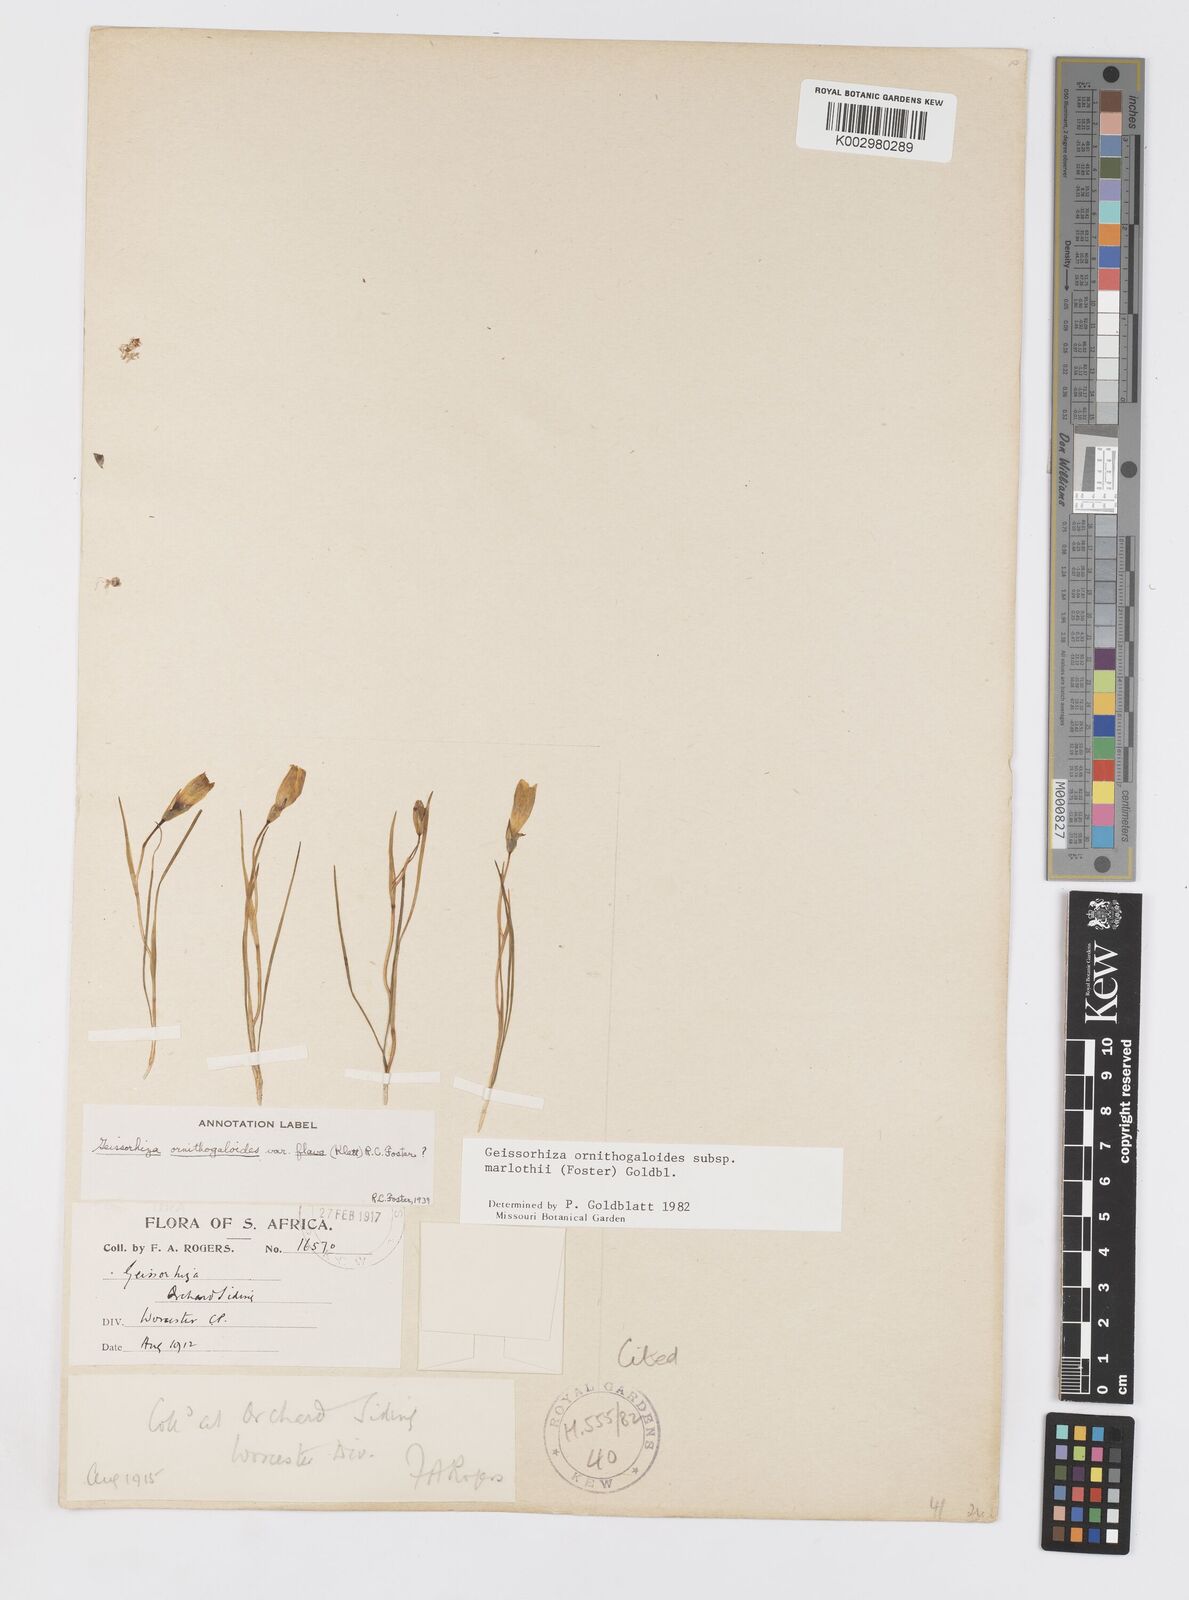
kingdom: Plantae
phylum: Tracheophyta
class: Liliopsida
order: Asparagales
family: Iridaceae
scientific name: Iridaceae
